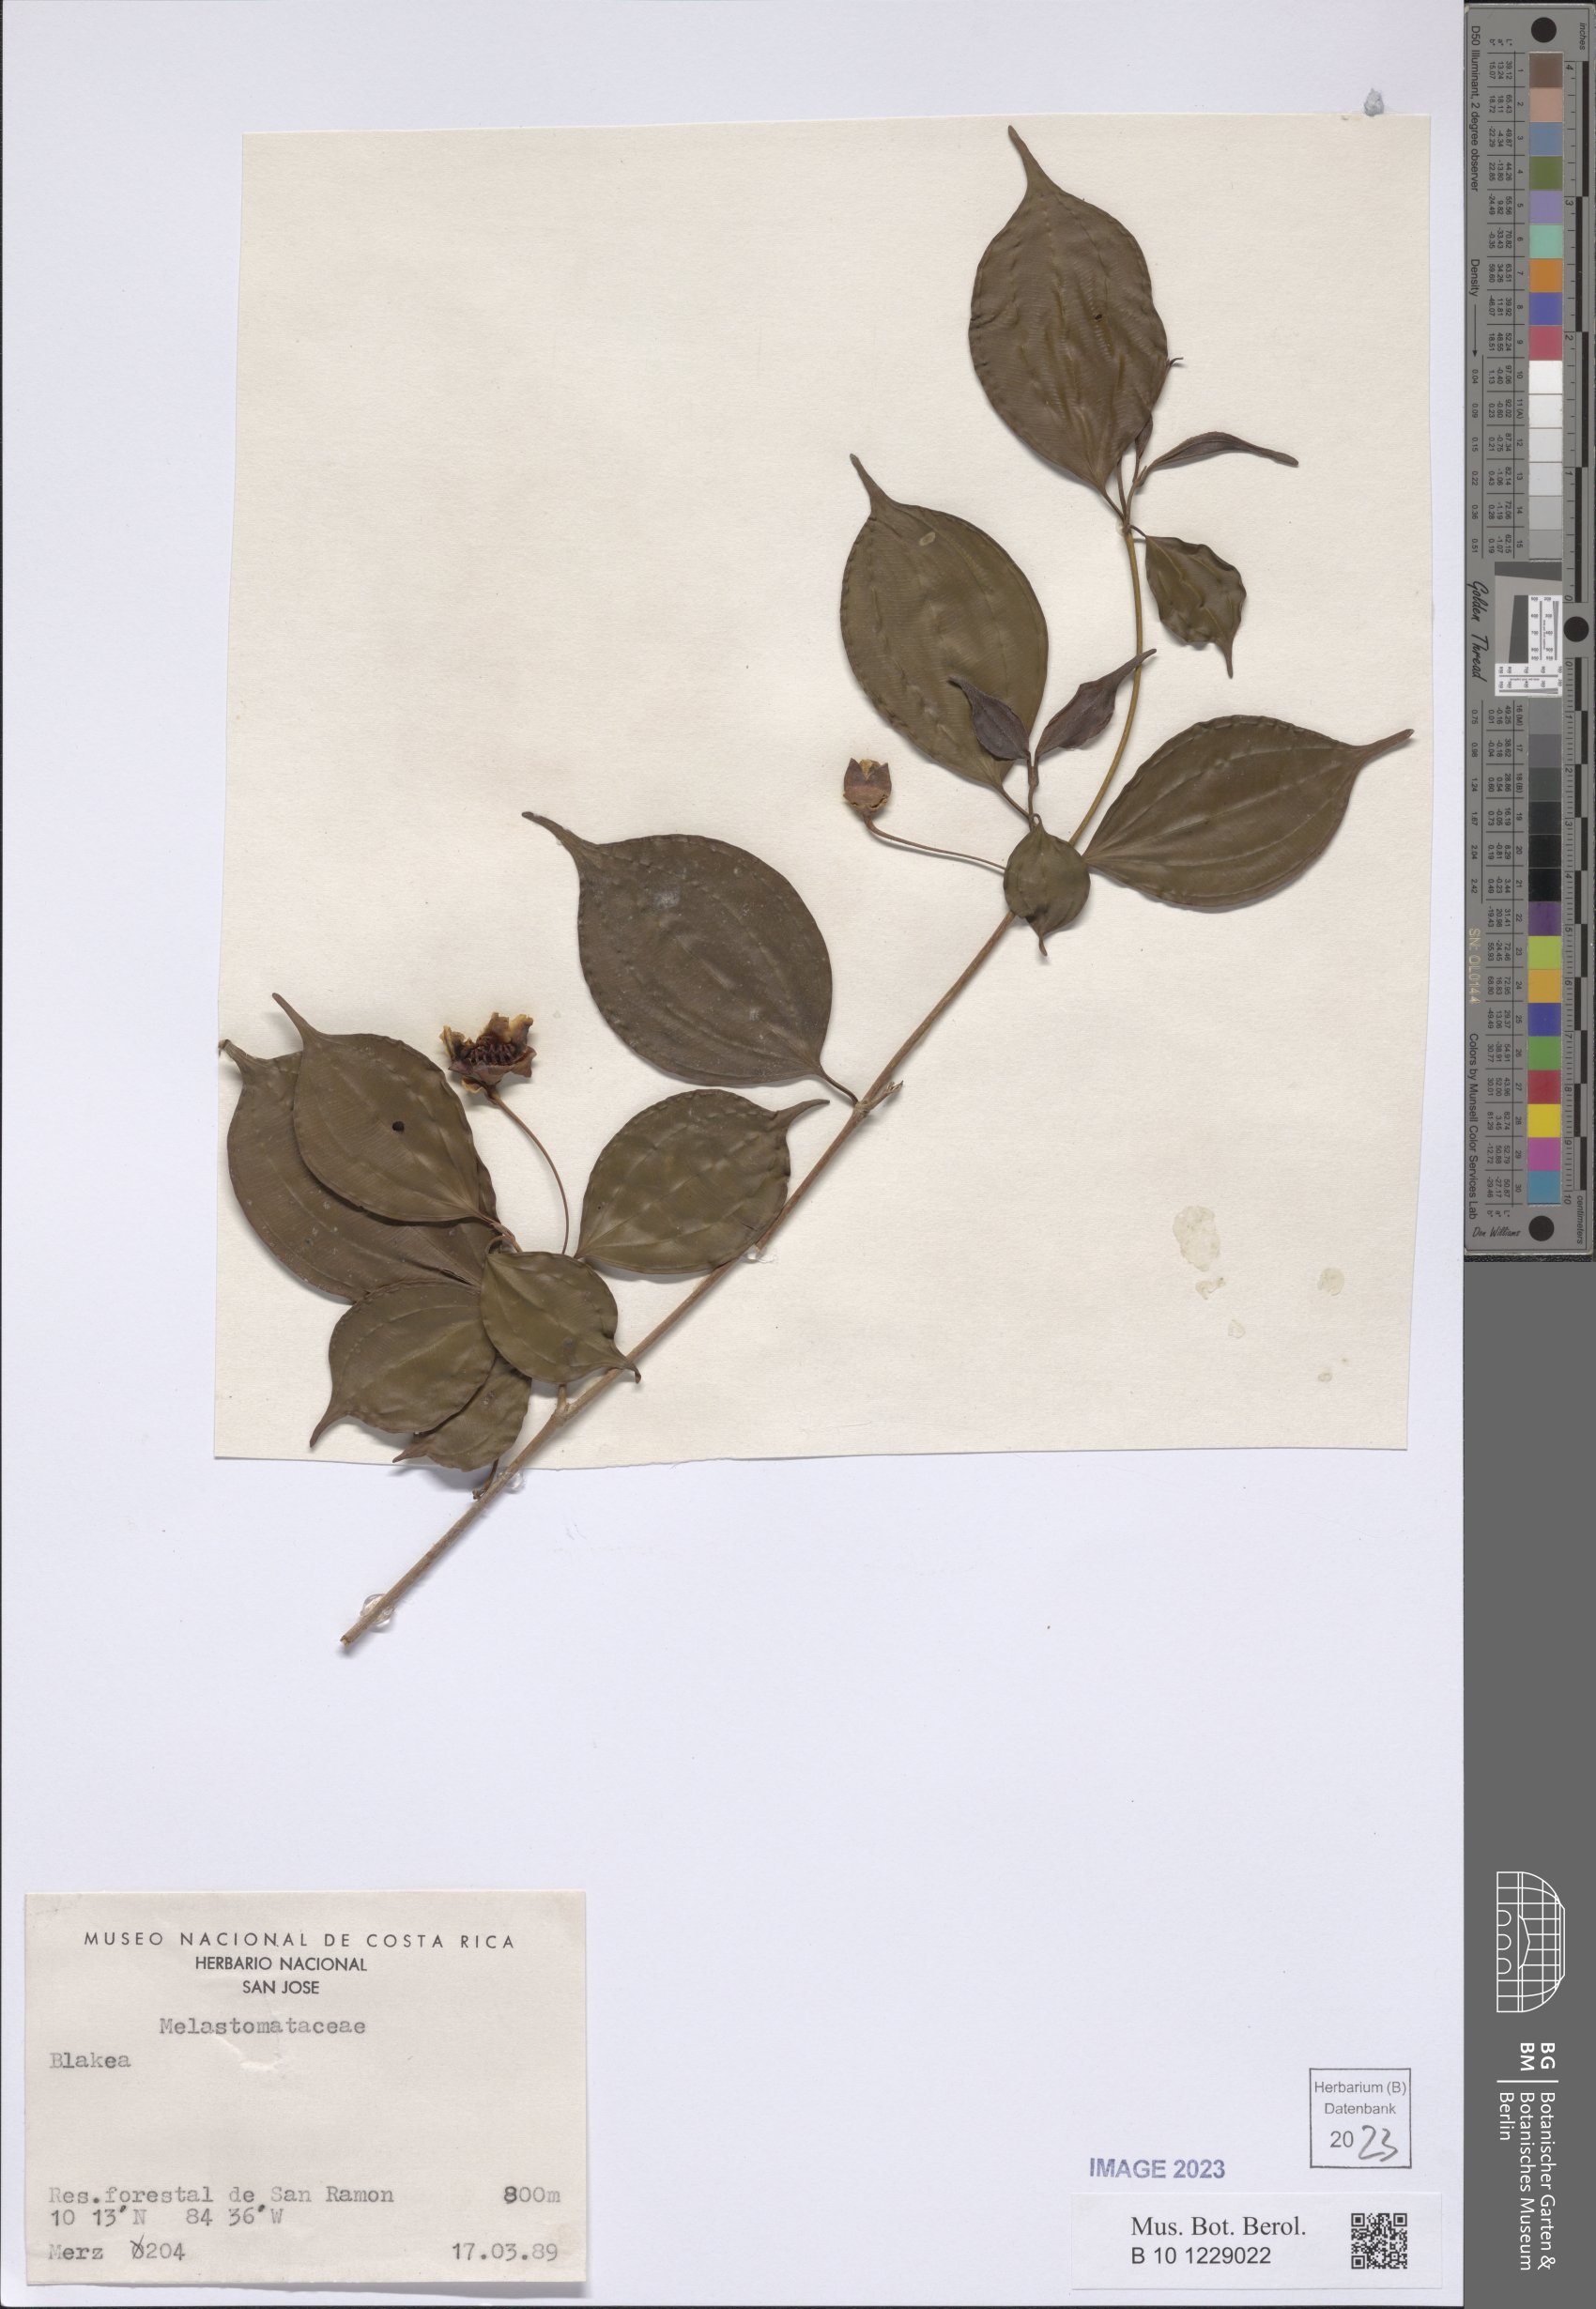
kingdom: Plantae
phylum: Tracheophyta
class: Magnoliopsida
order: Myrtales
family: Melastomataceae
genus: Blakea
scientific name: Blakea
